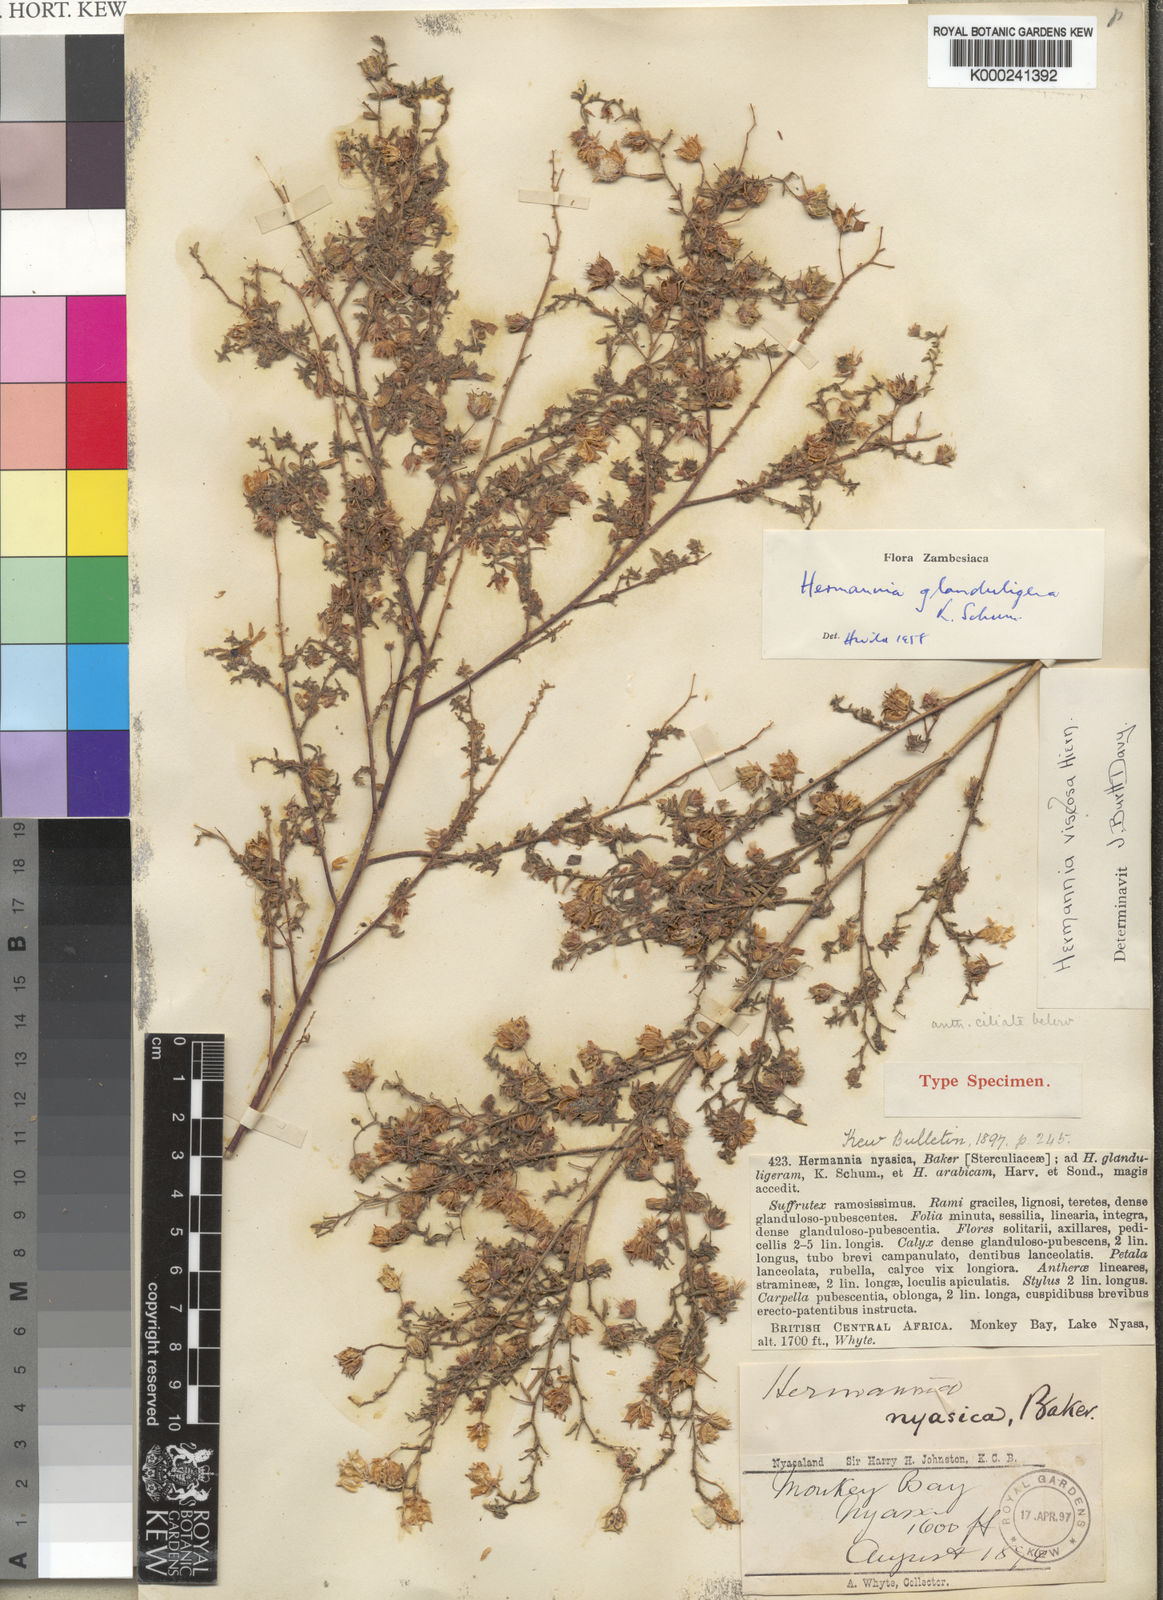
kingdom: Plantae
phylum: Tracheophyta
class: Magnoliopsida
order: Malvales
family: Malvaceae
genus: Hermannia
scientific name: Hermannia glanduligera
